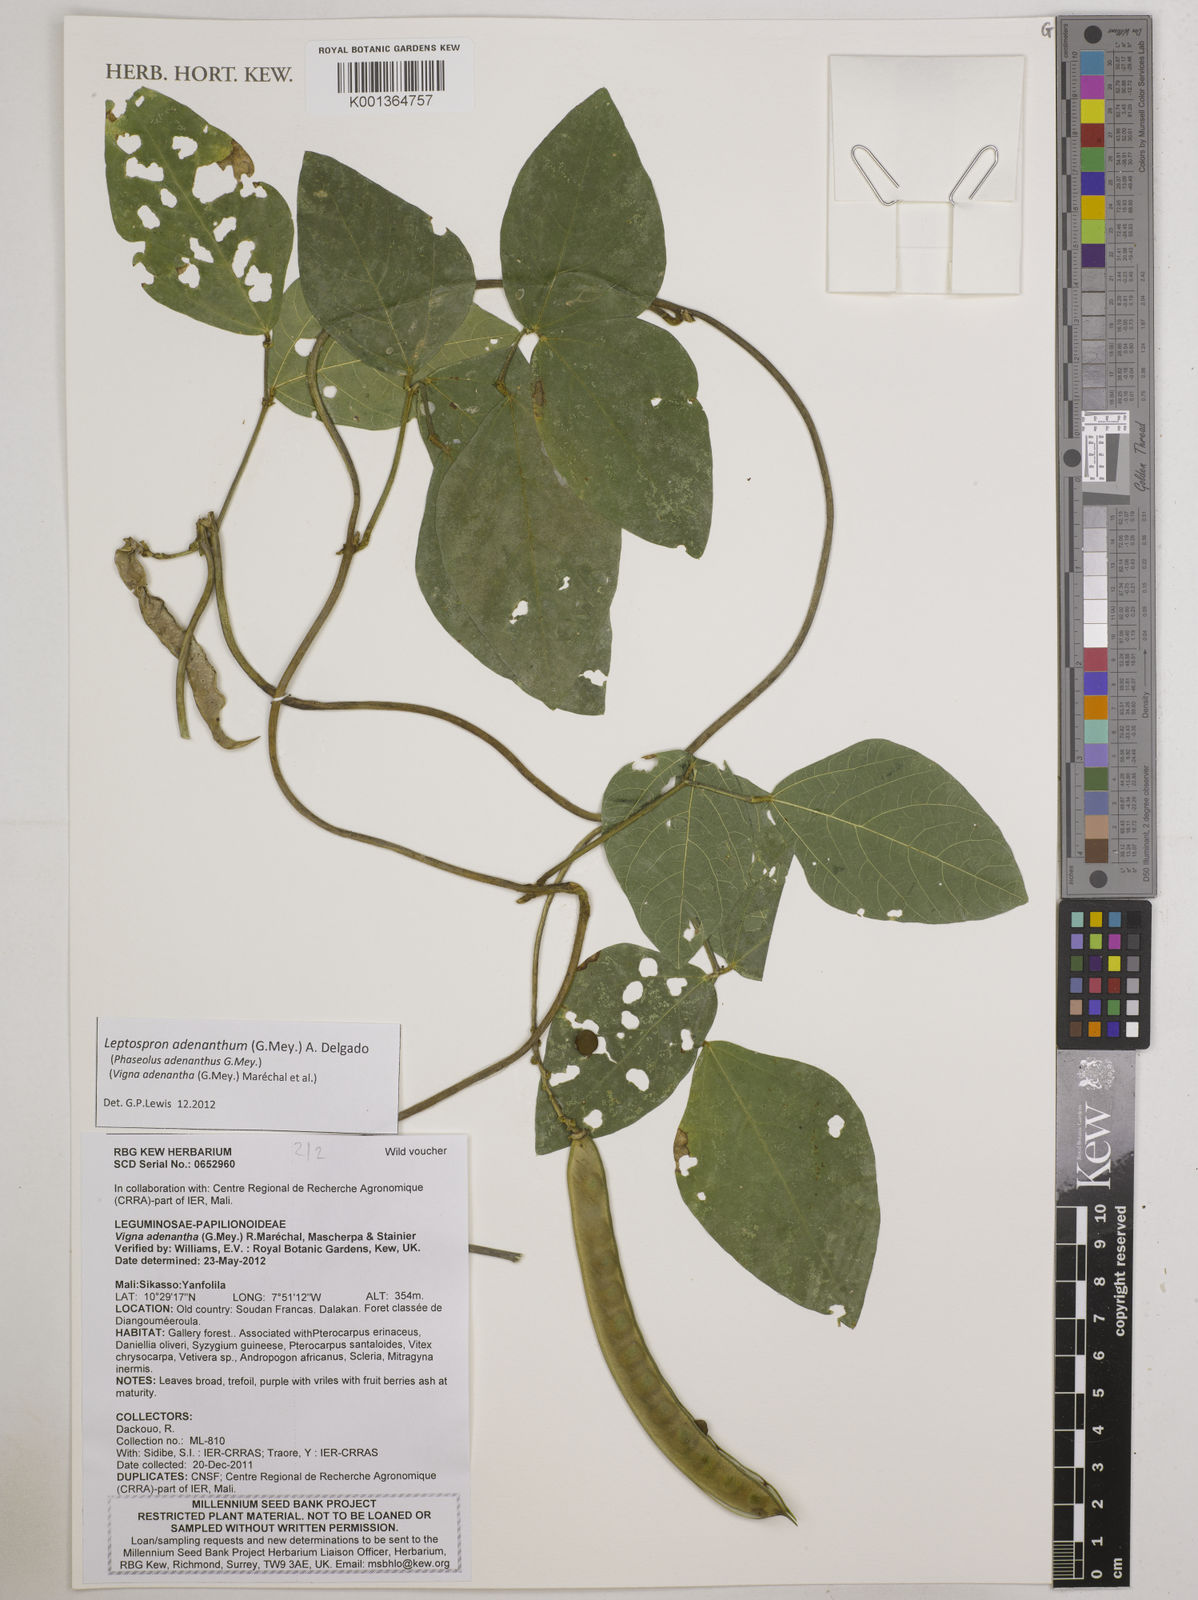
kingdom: Plantae
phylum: Tracheophyta
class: Magnoliopsida
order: Fabales
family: Fabaceae
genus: Leptospron
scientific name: Leptospron adenanthum
